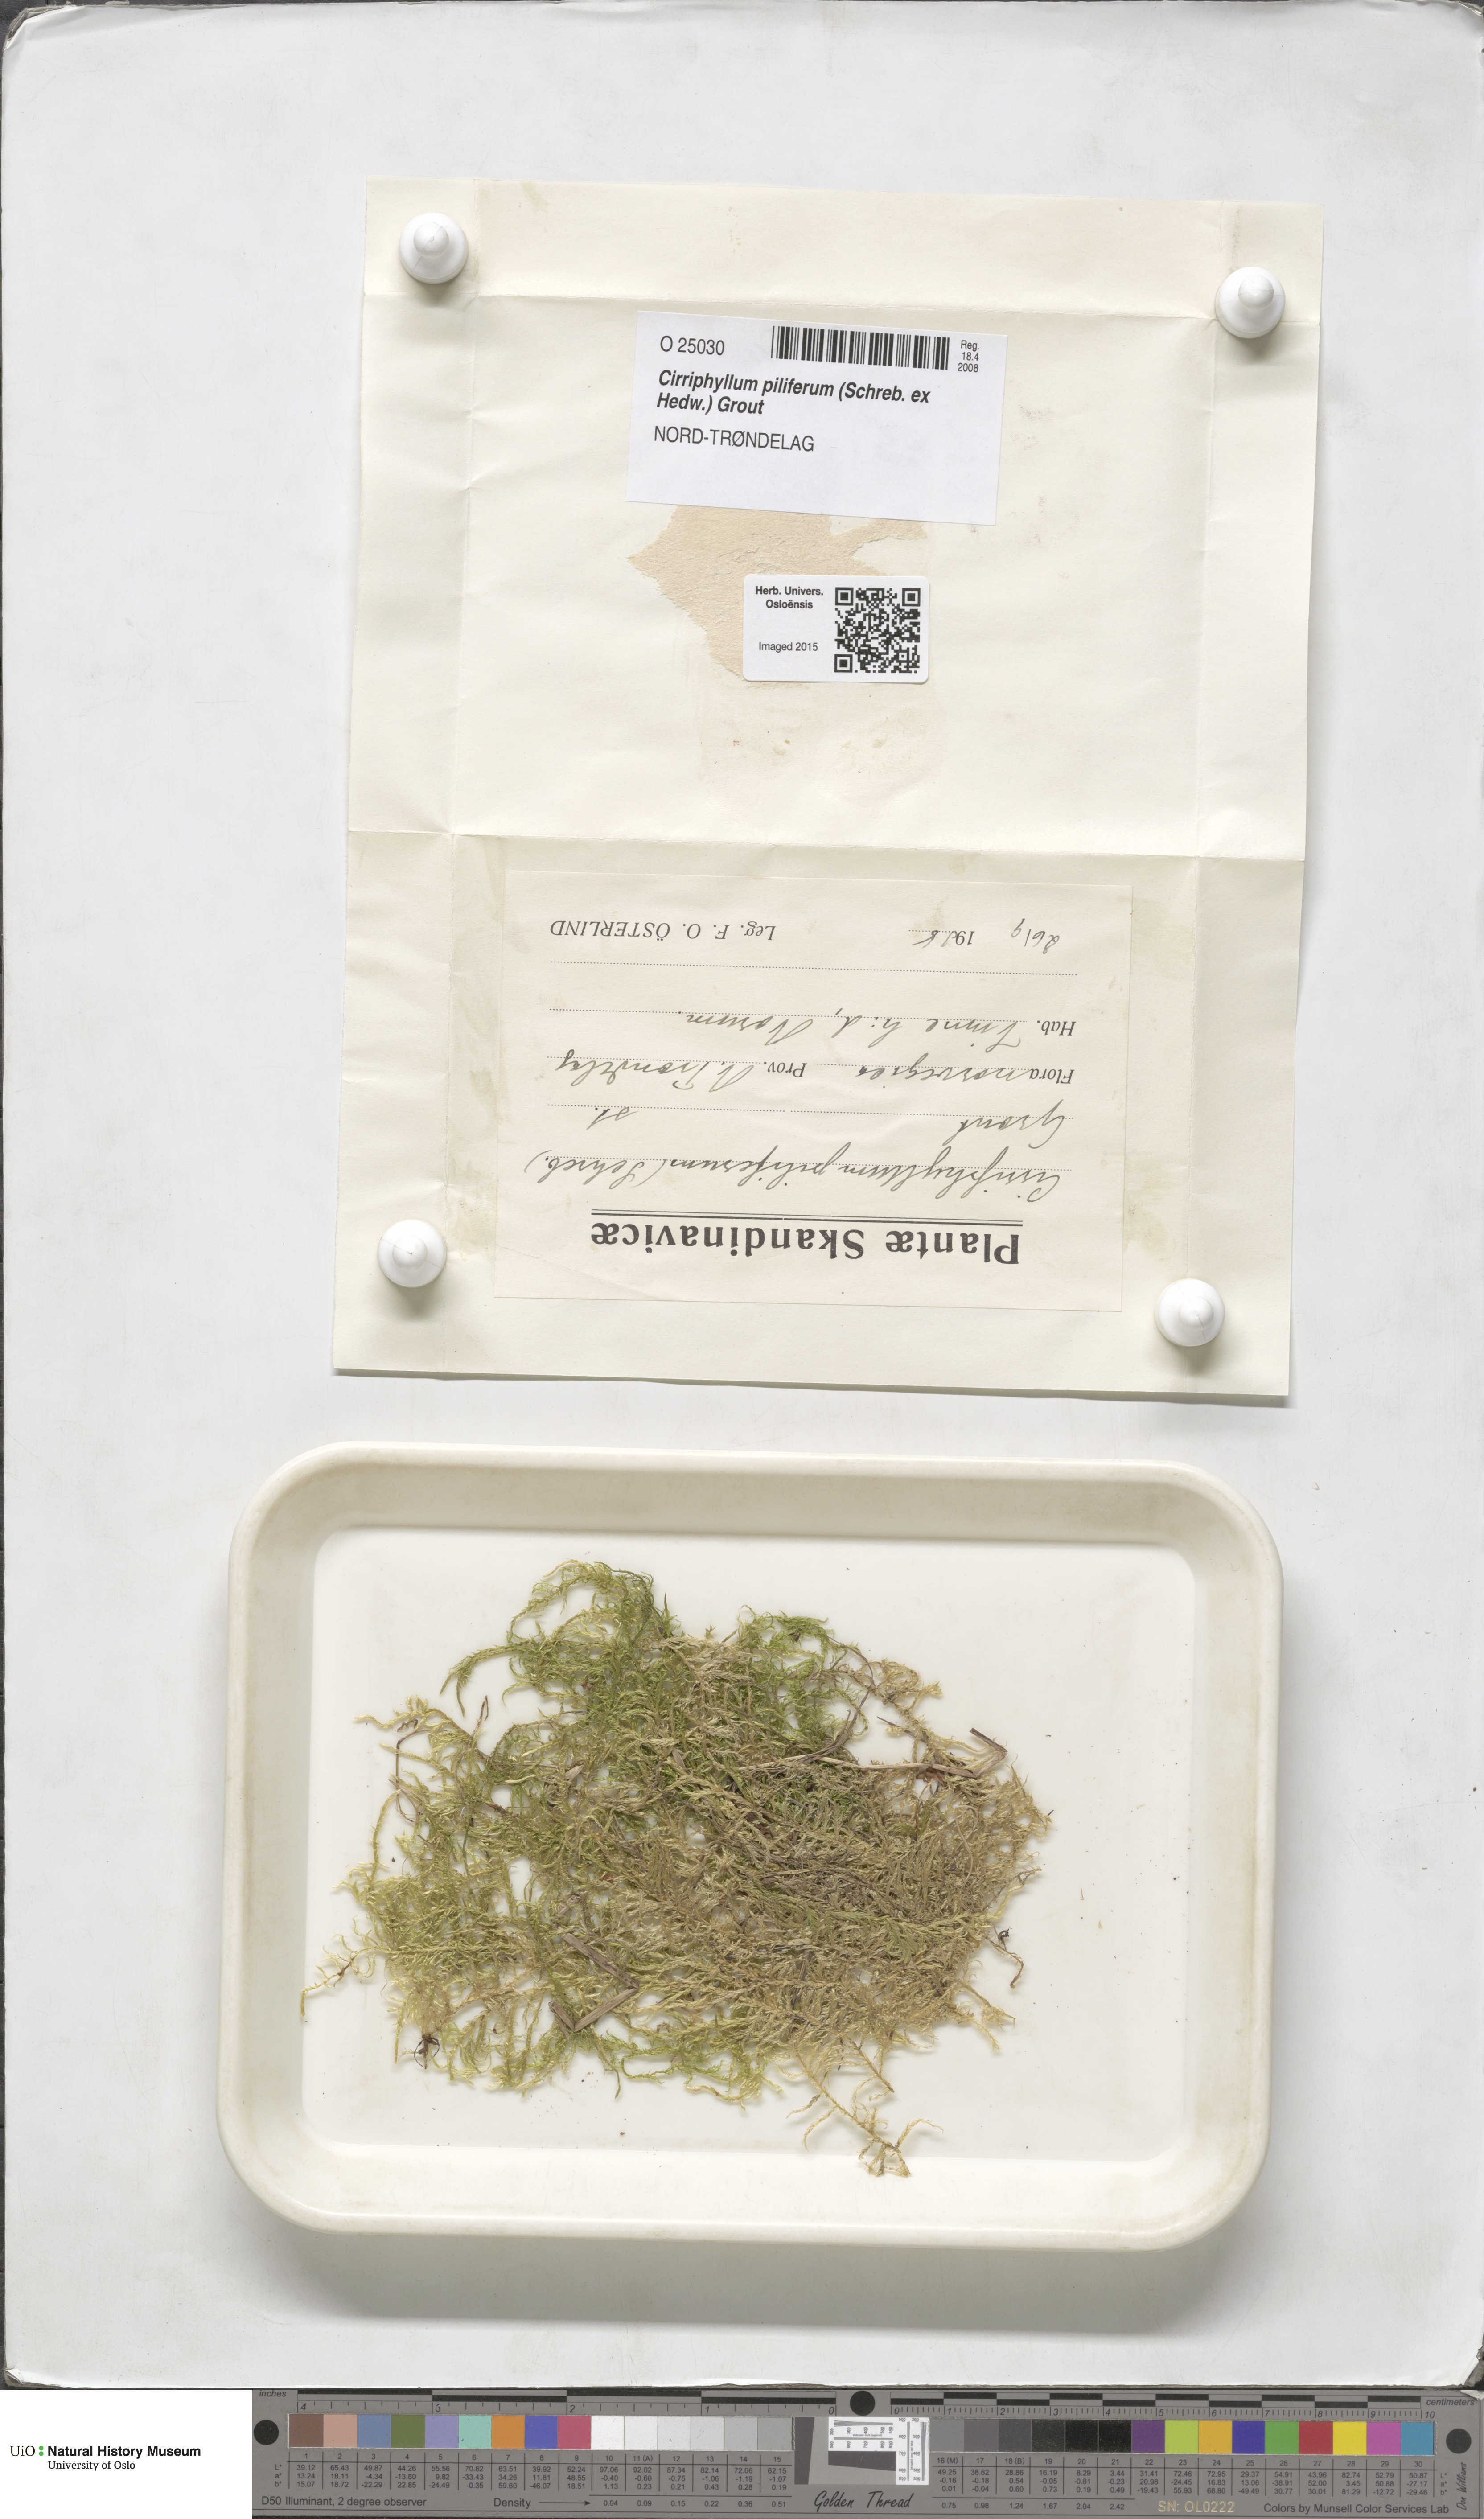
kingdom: Plantae
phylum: Bryophyta
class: Bryopsida
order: Hypnales
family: Brachytheciaceae
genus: Cirriphyllum
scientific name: Cirriphyllum piliferum
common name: Hair-pointed moss
